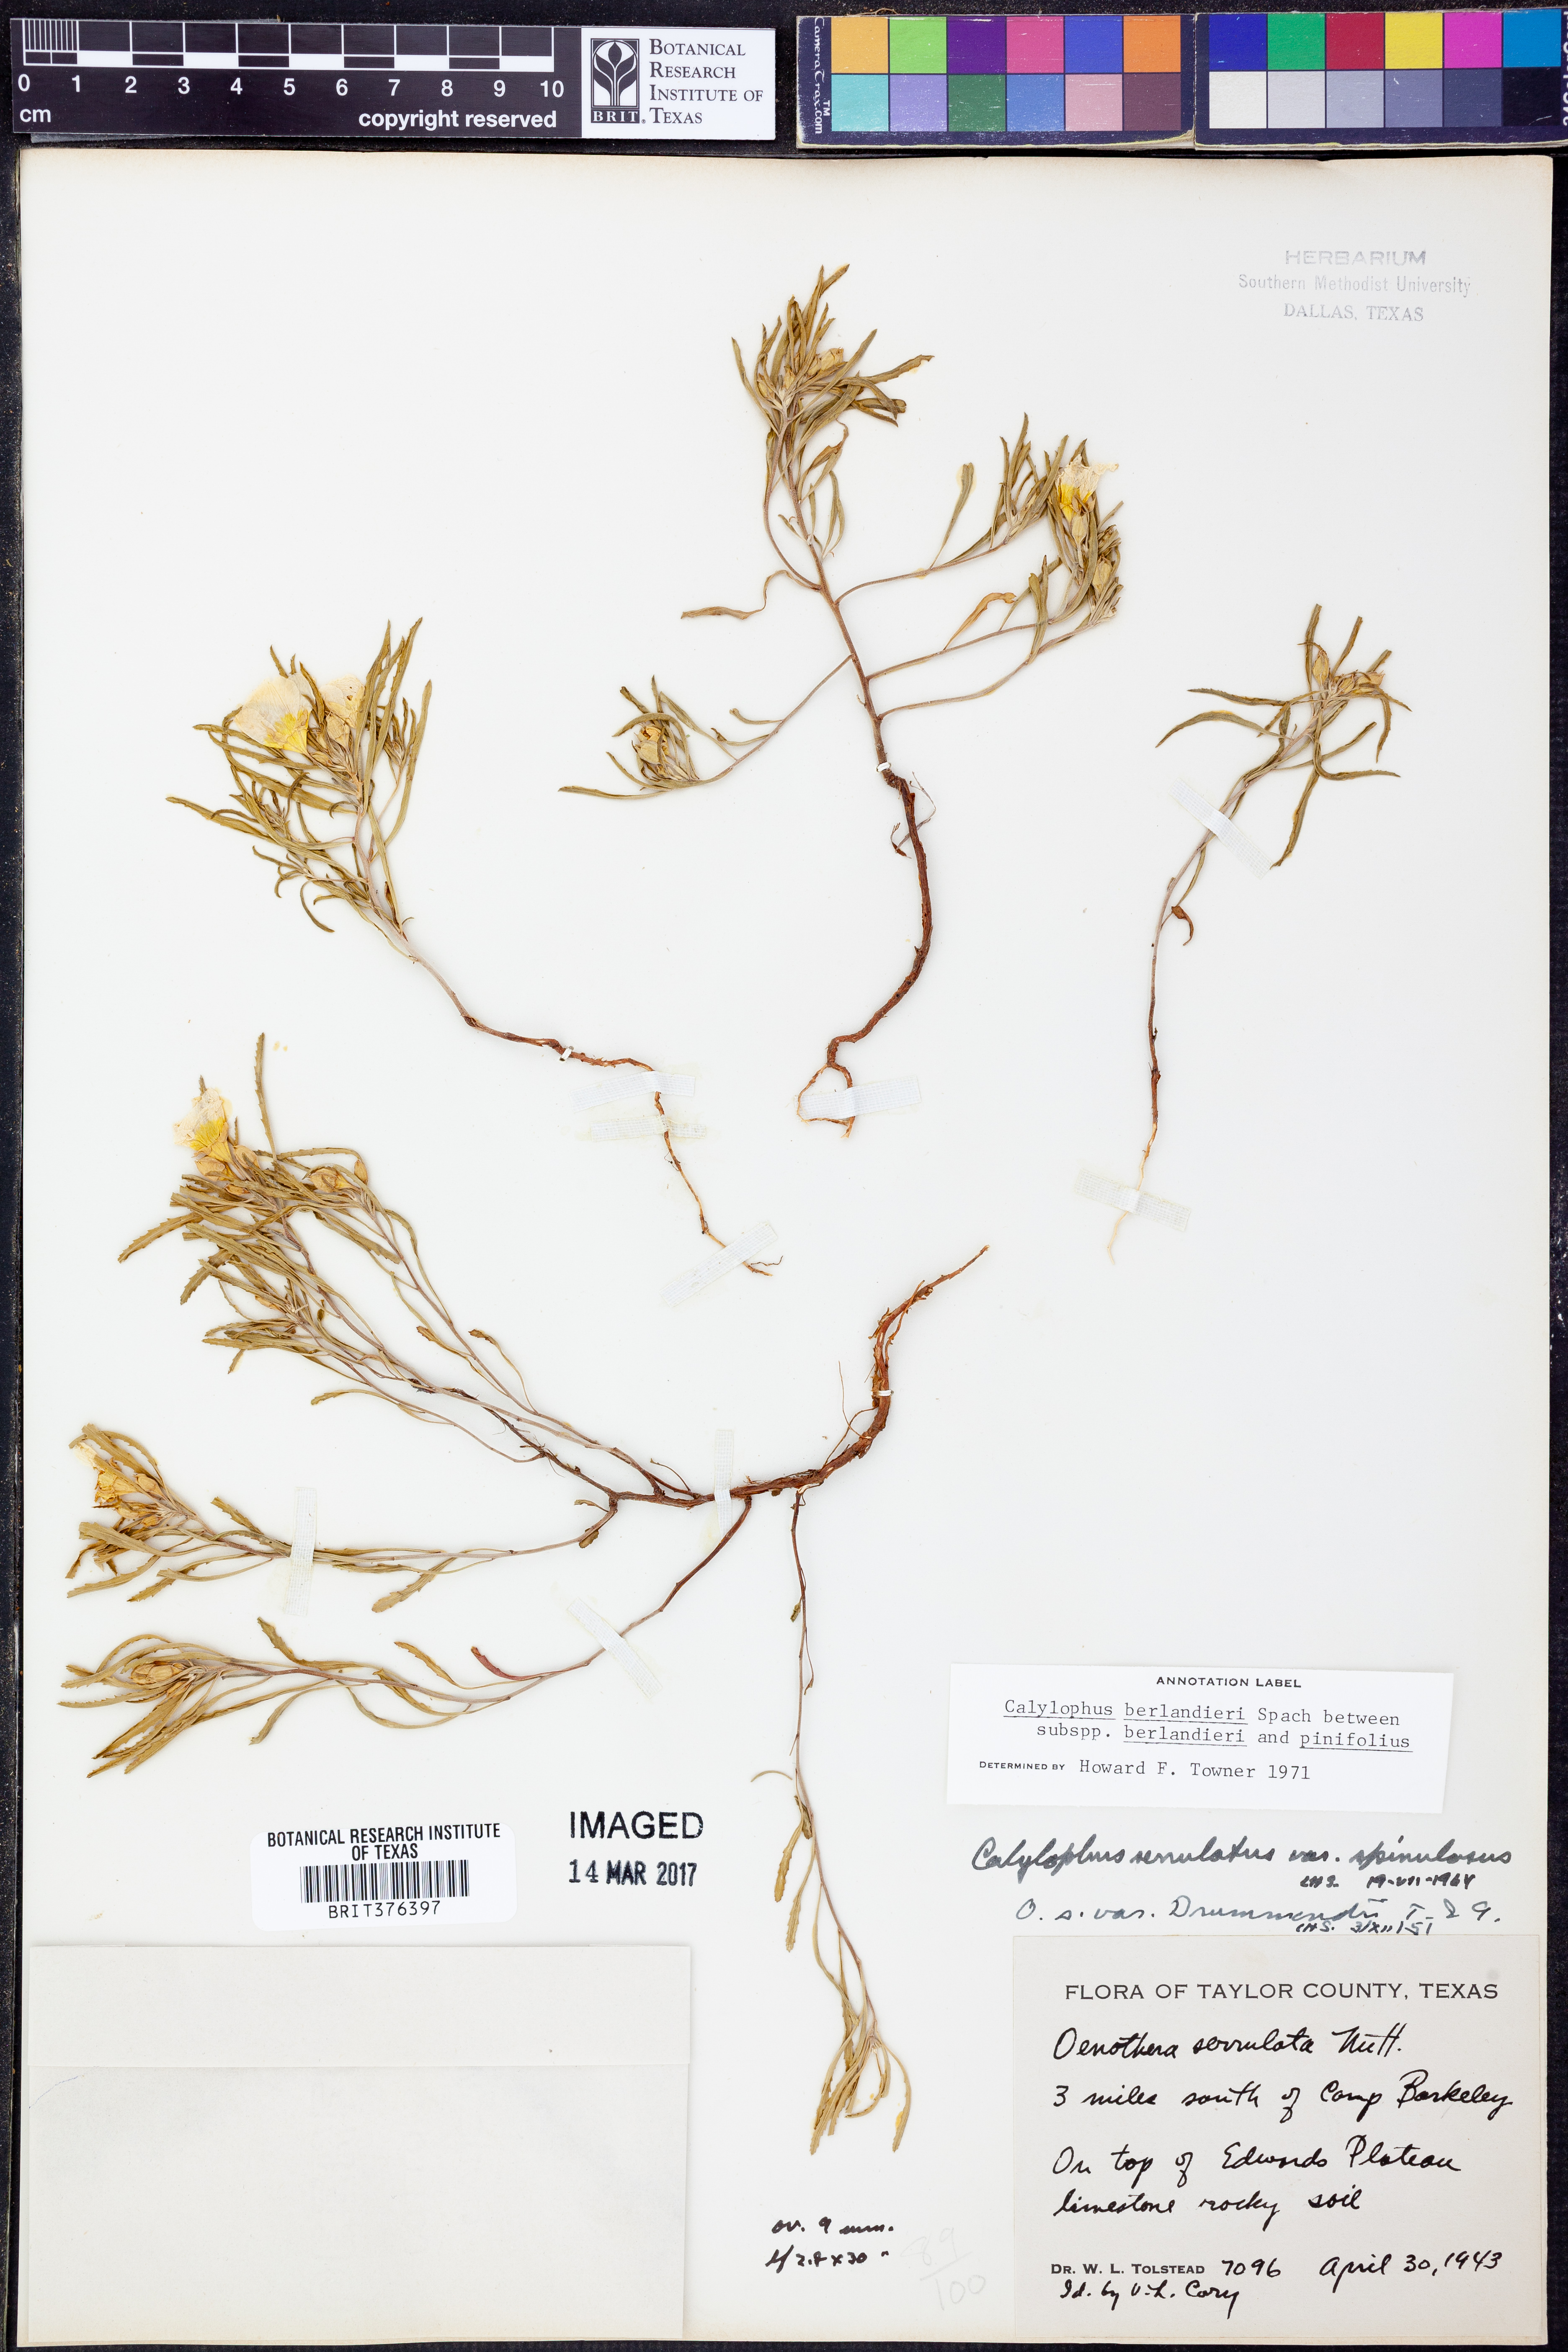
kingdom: Plantae
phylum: Tracheophyta
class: Magnoliopsida
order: Myrtales
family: Onagraceae
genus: Oenothera
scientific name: Oenothera capillifolia
